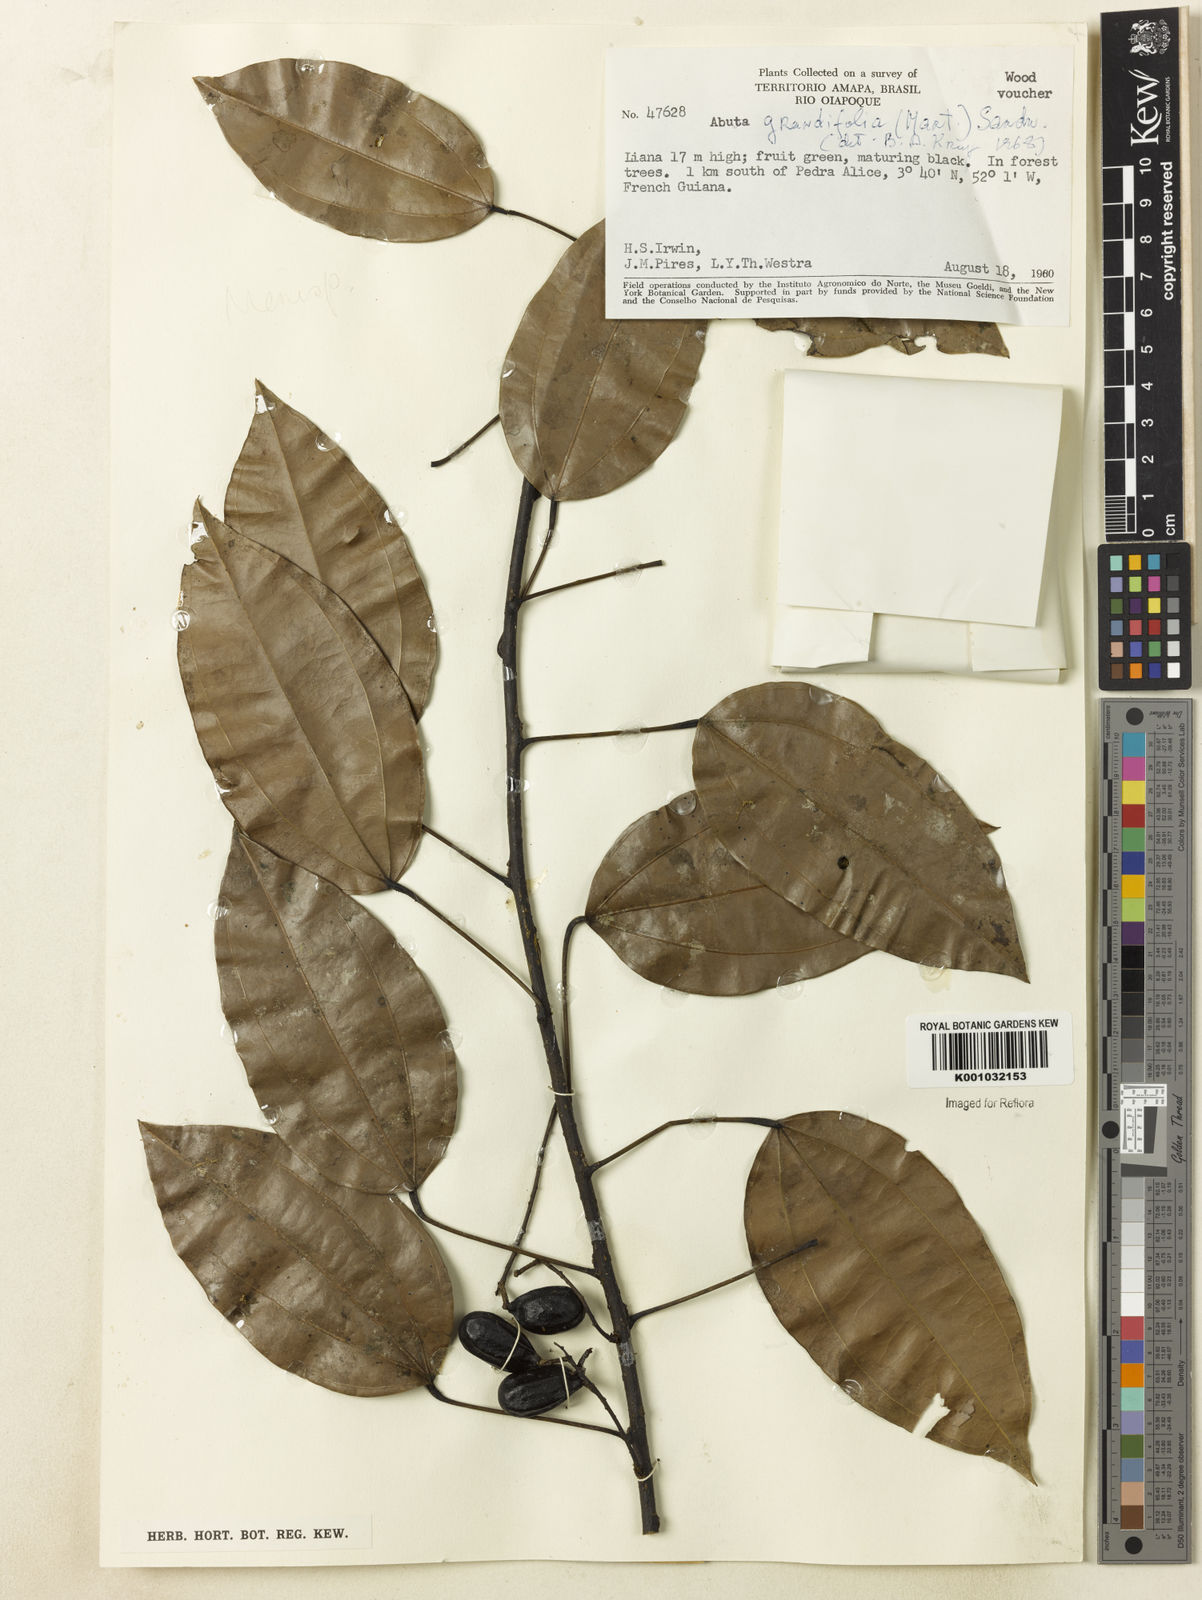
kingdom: Plantae
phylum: Tracheophyta
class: Magnoliopsida
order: Ranunculales
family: Menispermaceae
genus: Abuta
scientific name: Abuta grandifolia
